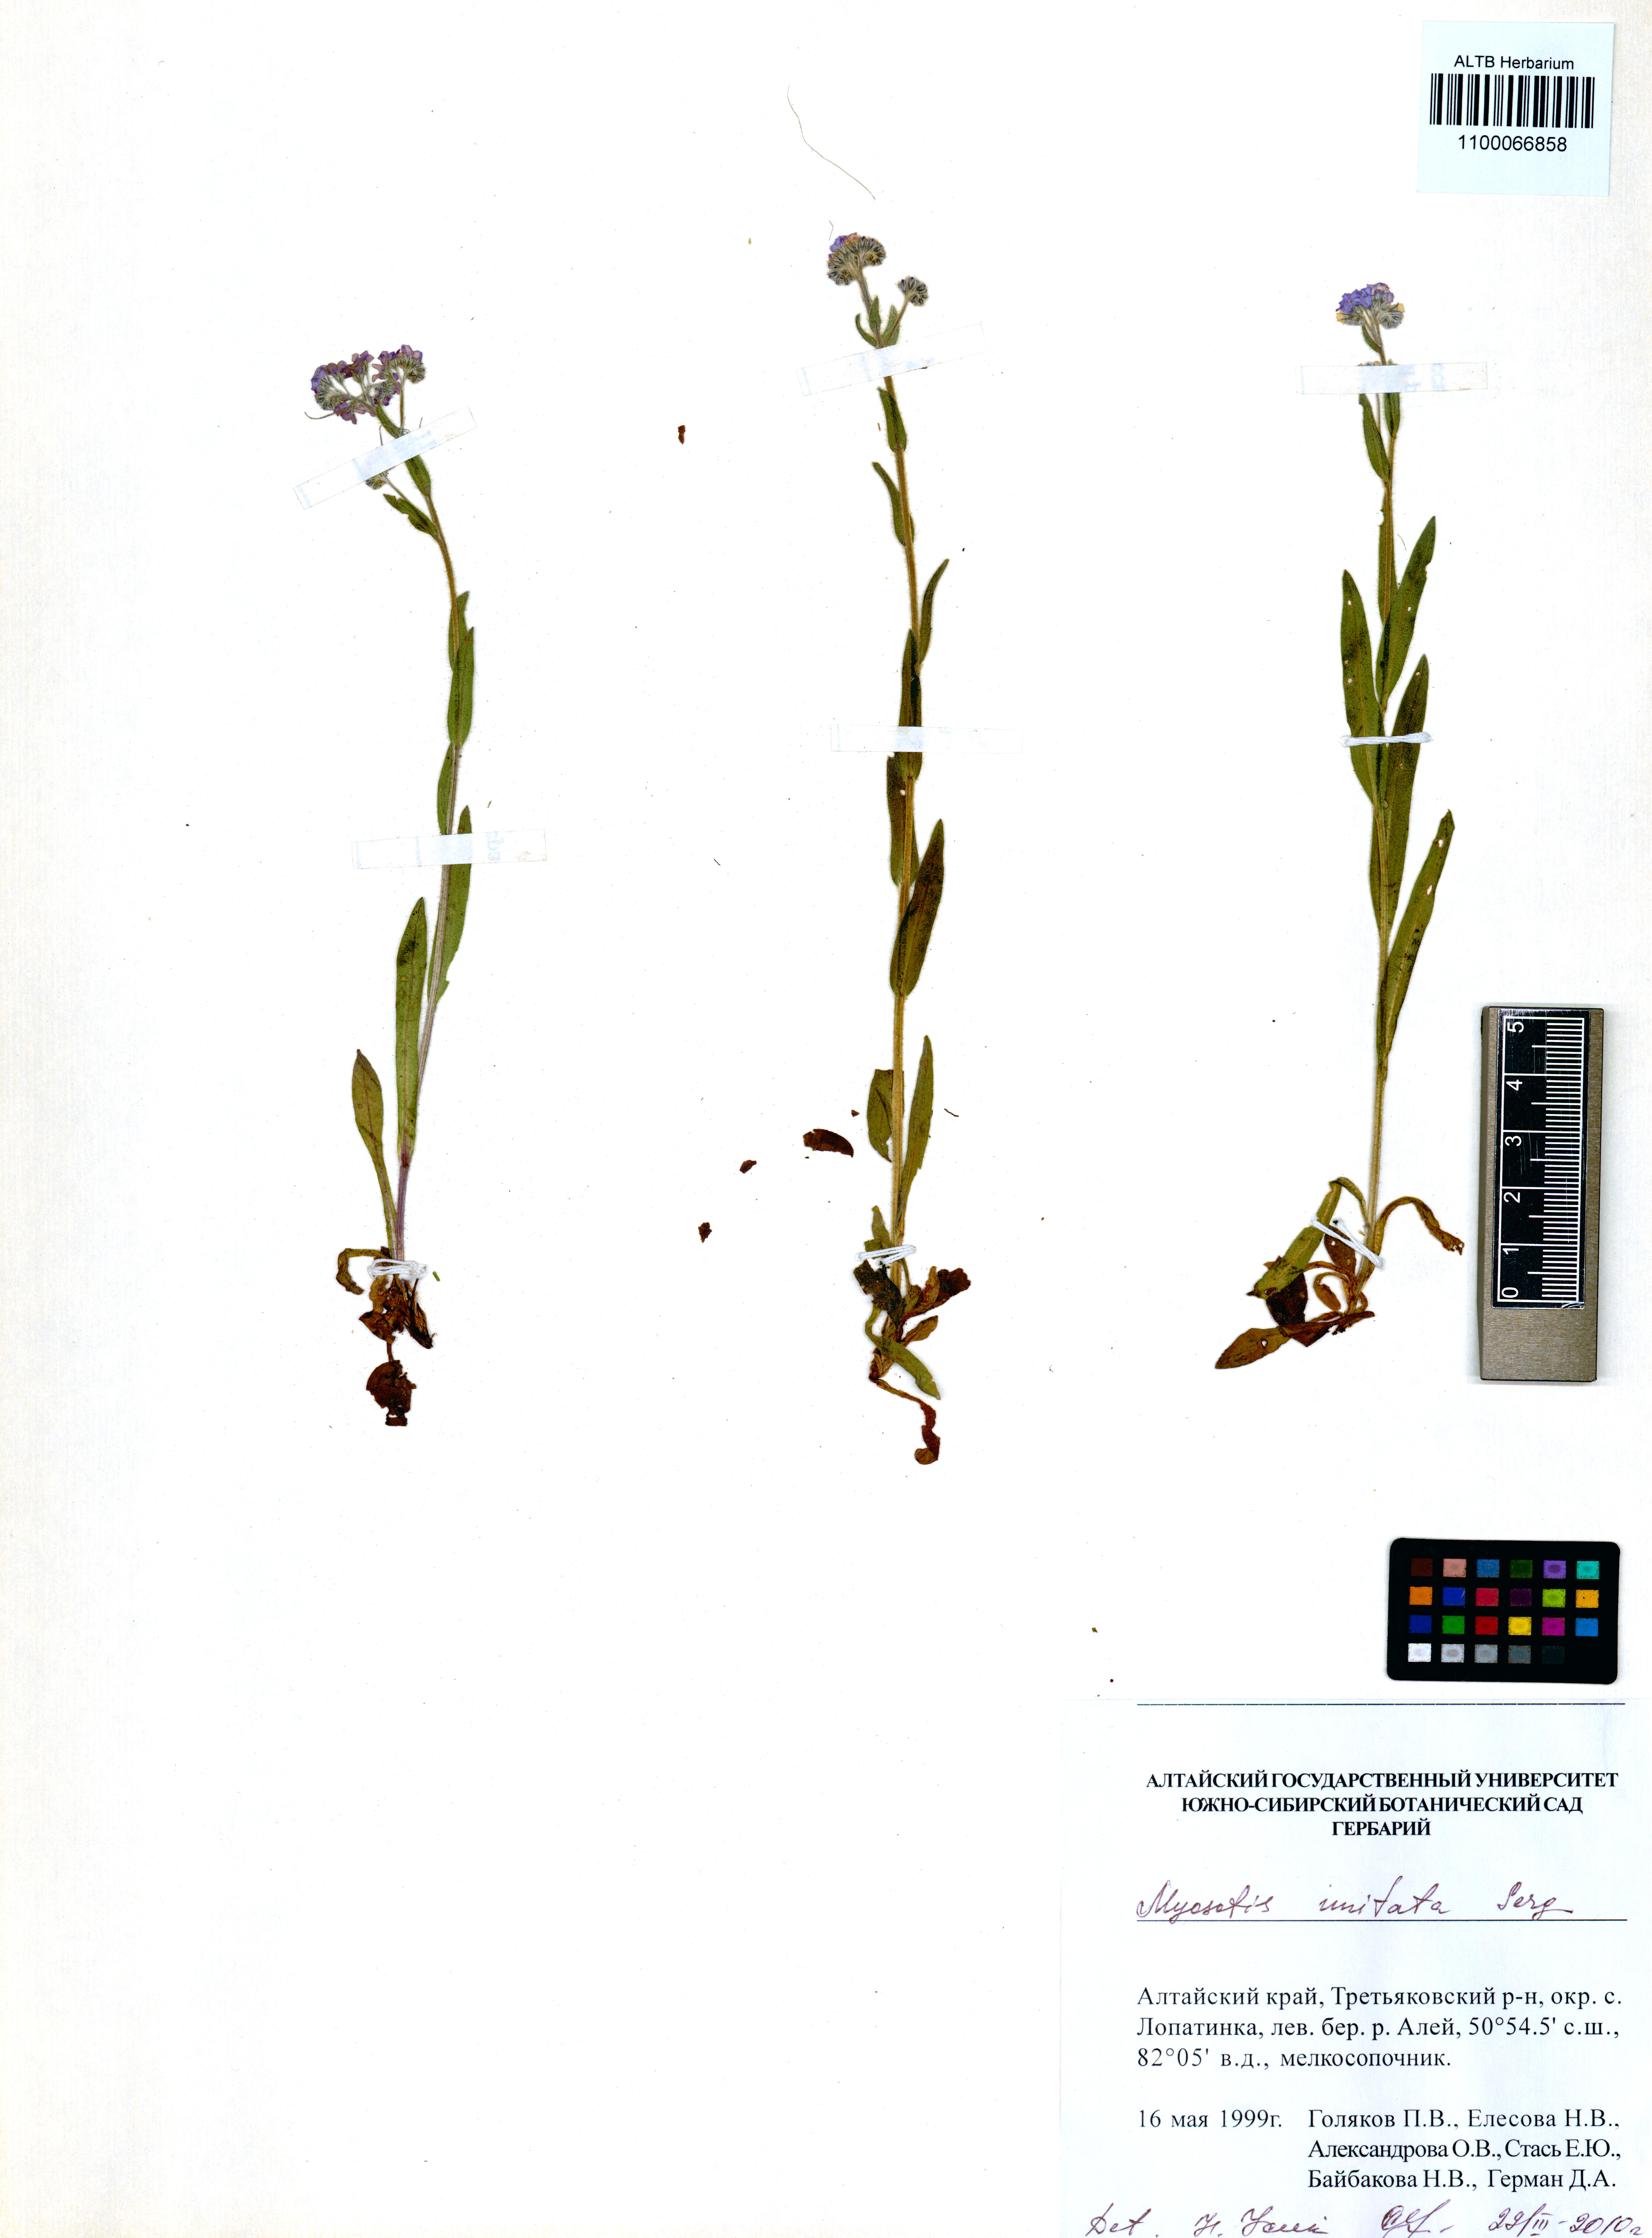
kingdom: Plantae
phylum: Tracheophyta
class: Magnoliopsida
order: Boraginales
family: Boraginaceae
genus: Myosotis
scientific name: Myosotis imitata
